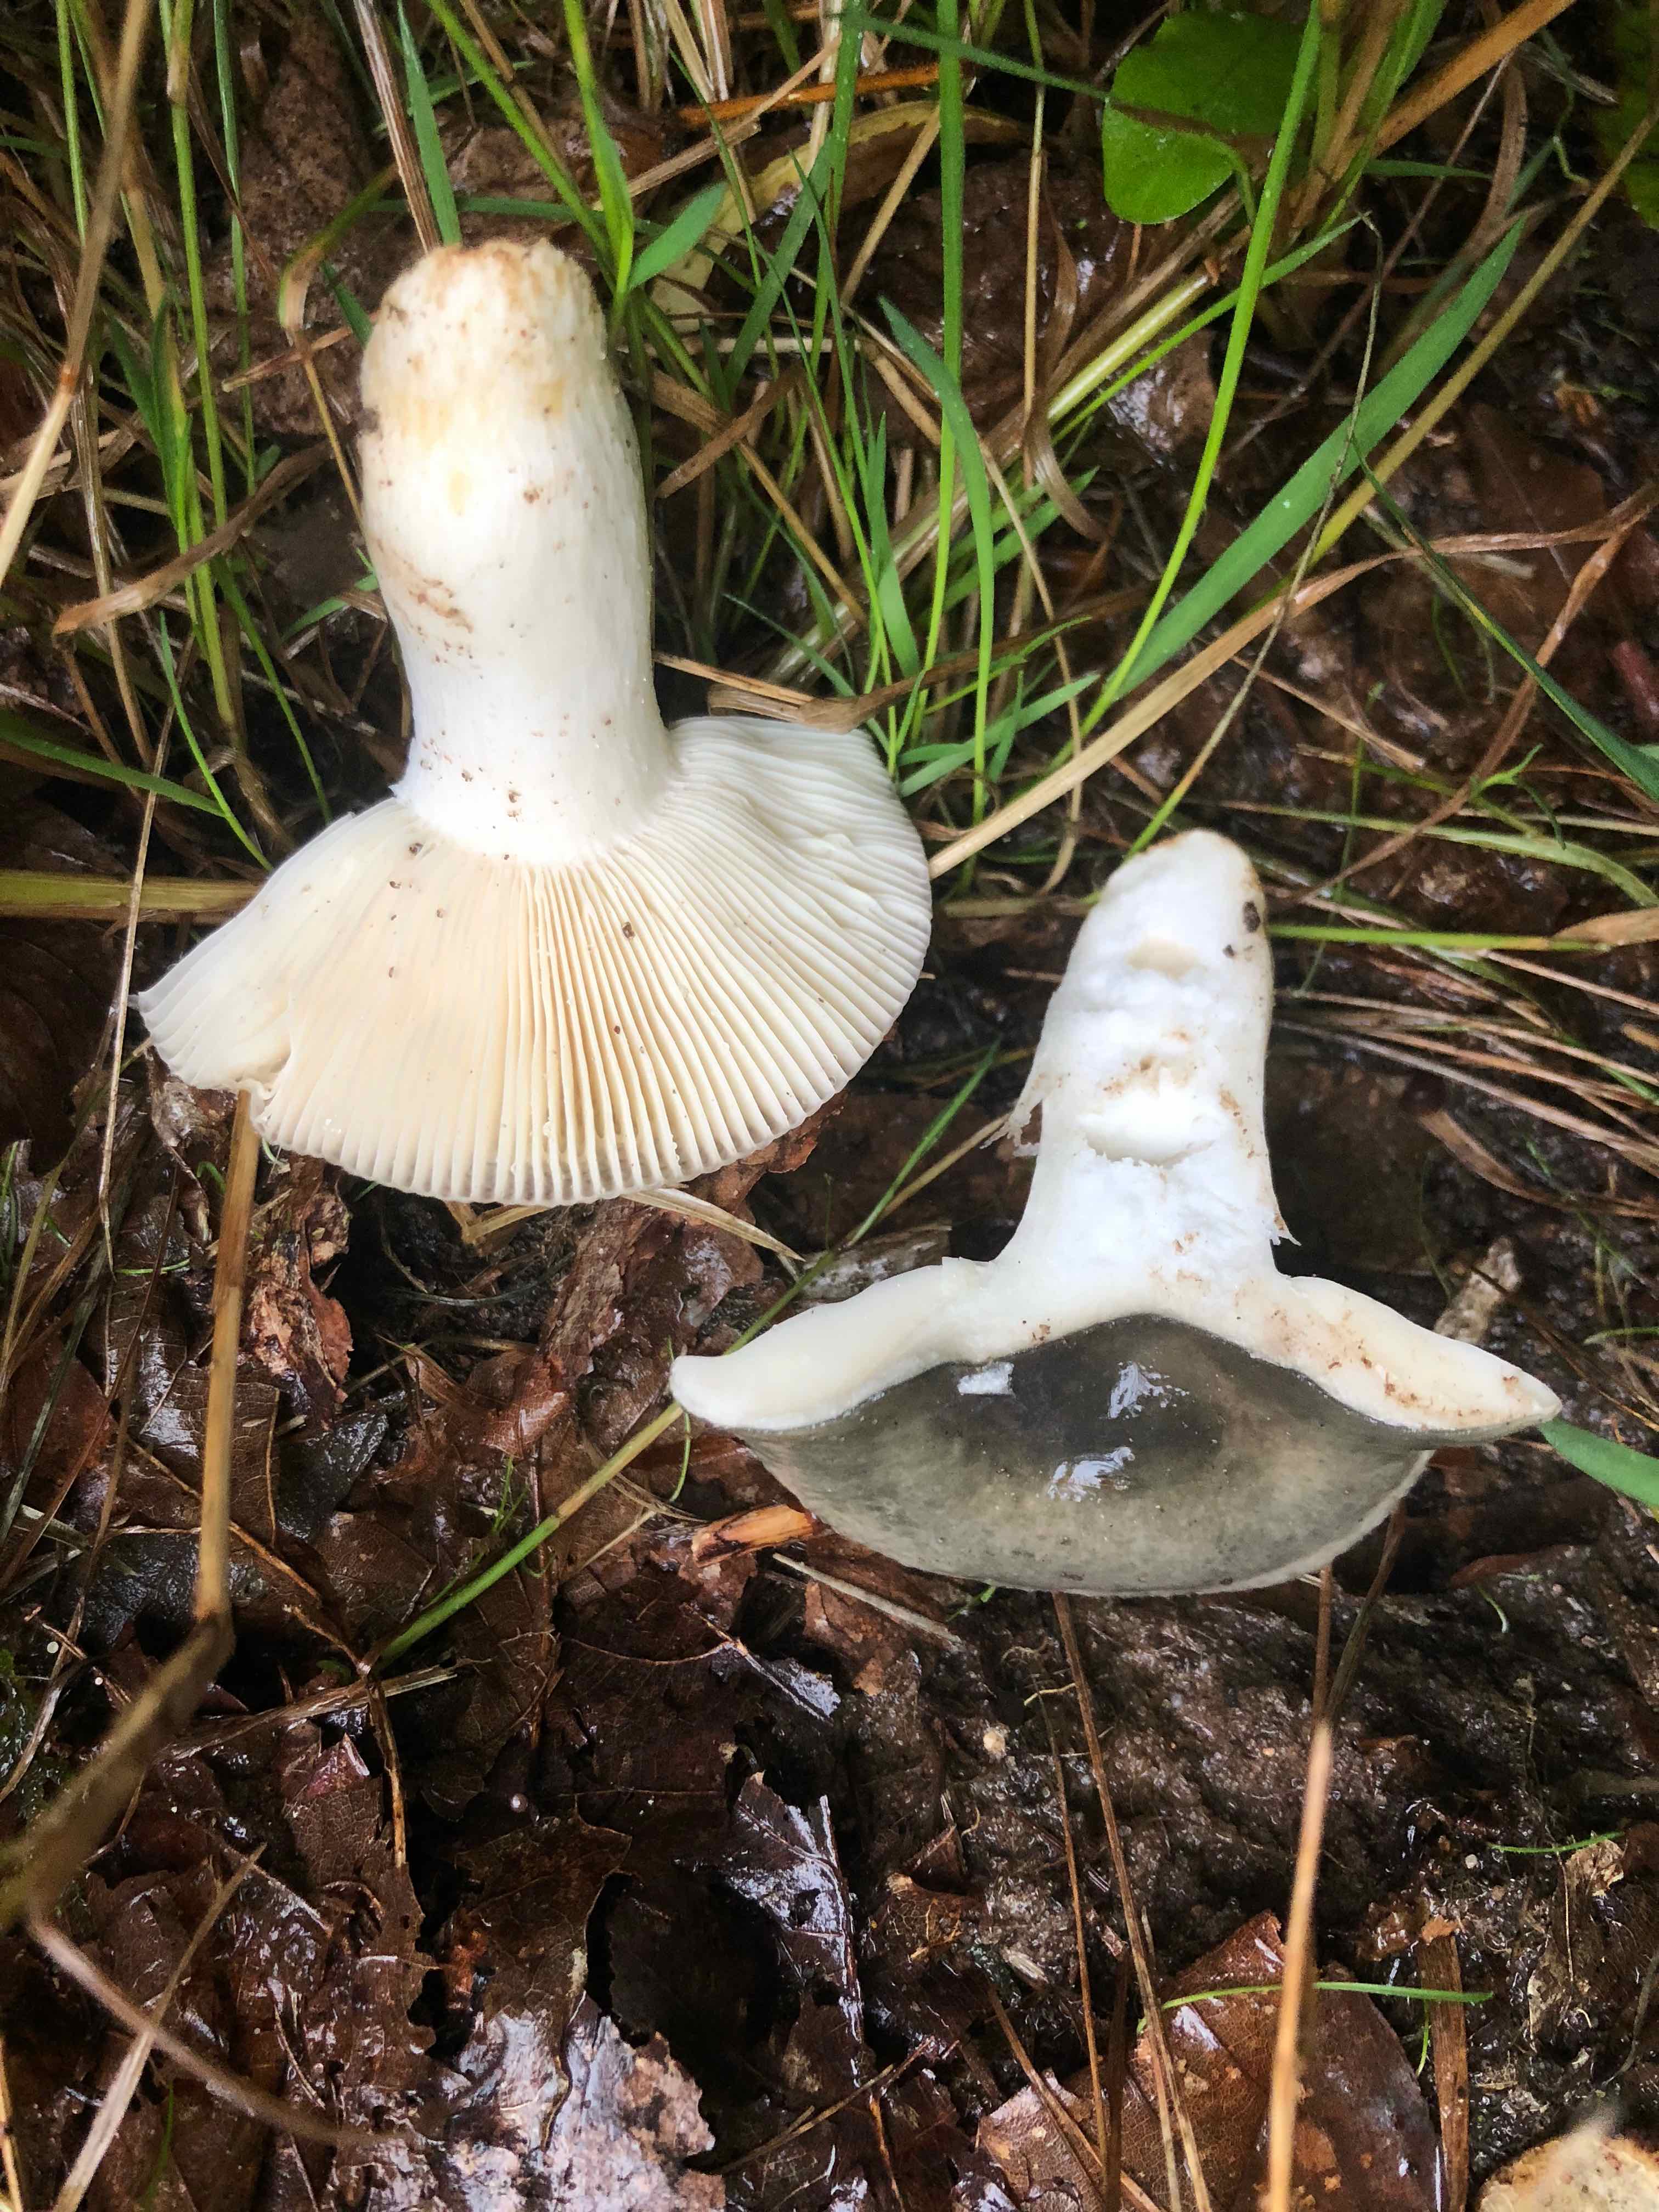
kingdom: Fungi
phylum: Basidiomycota
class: Agaricomycetes
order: Russulales
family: Russulaceae
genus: Russula
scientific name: Russula
